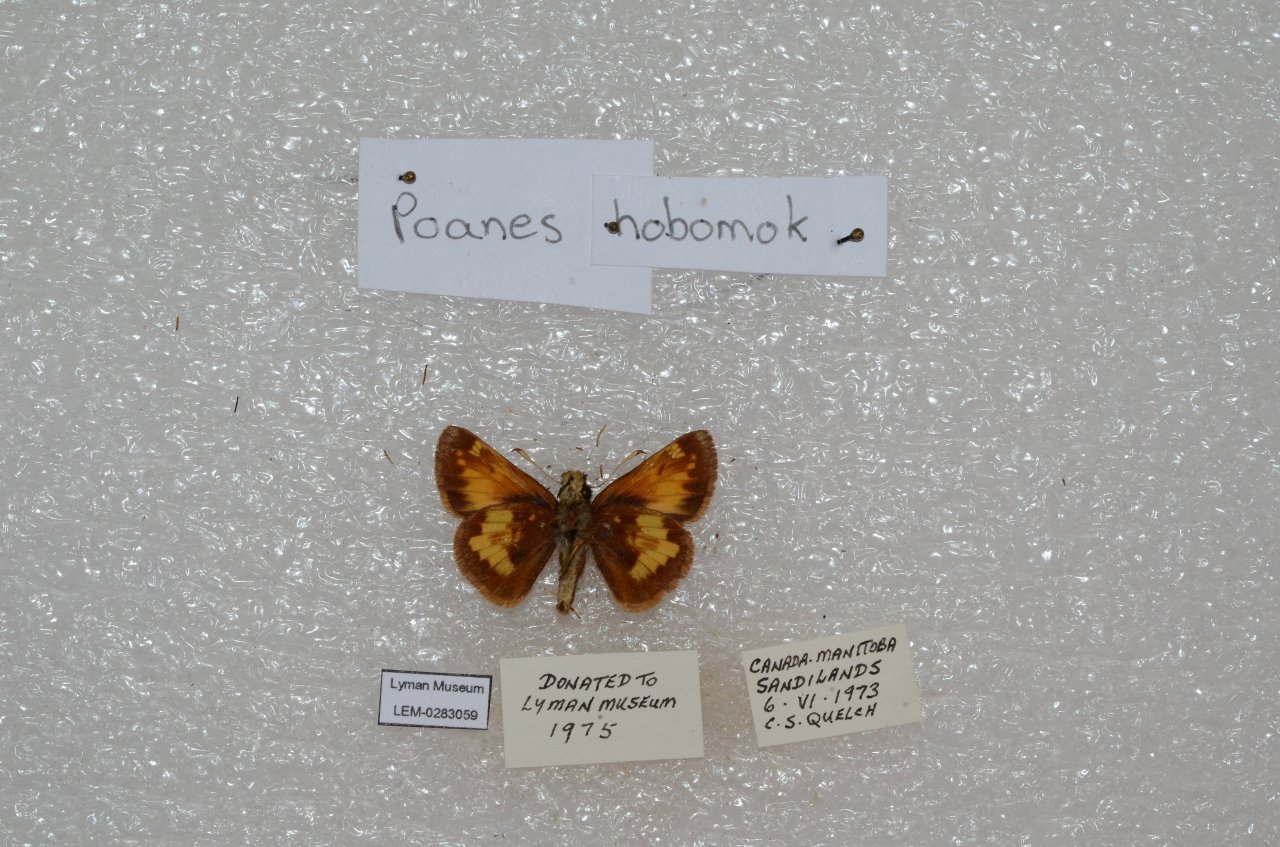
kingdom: Animalia
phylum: Arthropoda
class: Insecta
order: Lepidoptera
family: Hesperiidae
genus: Lon
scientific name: Lon hobomok
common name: Hobomok Skipper
